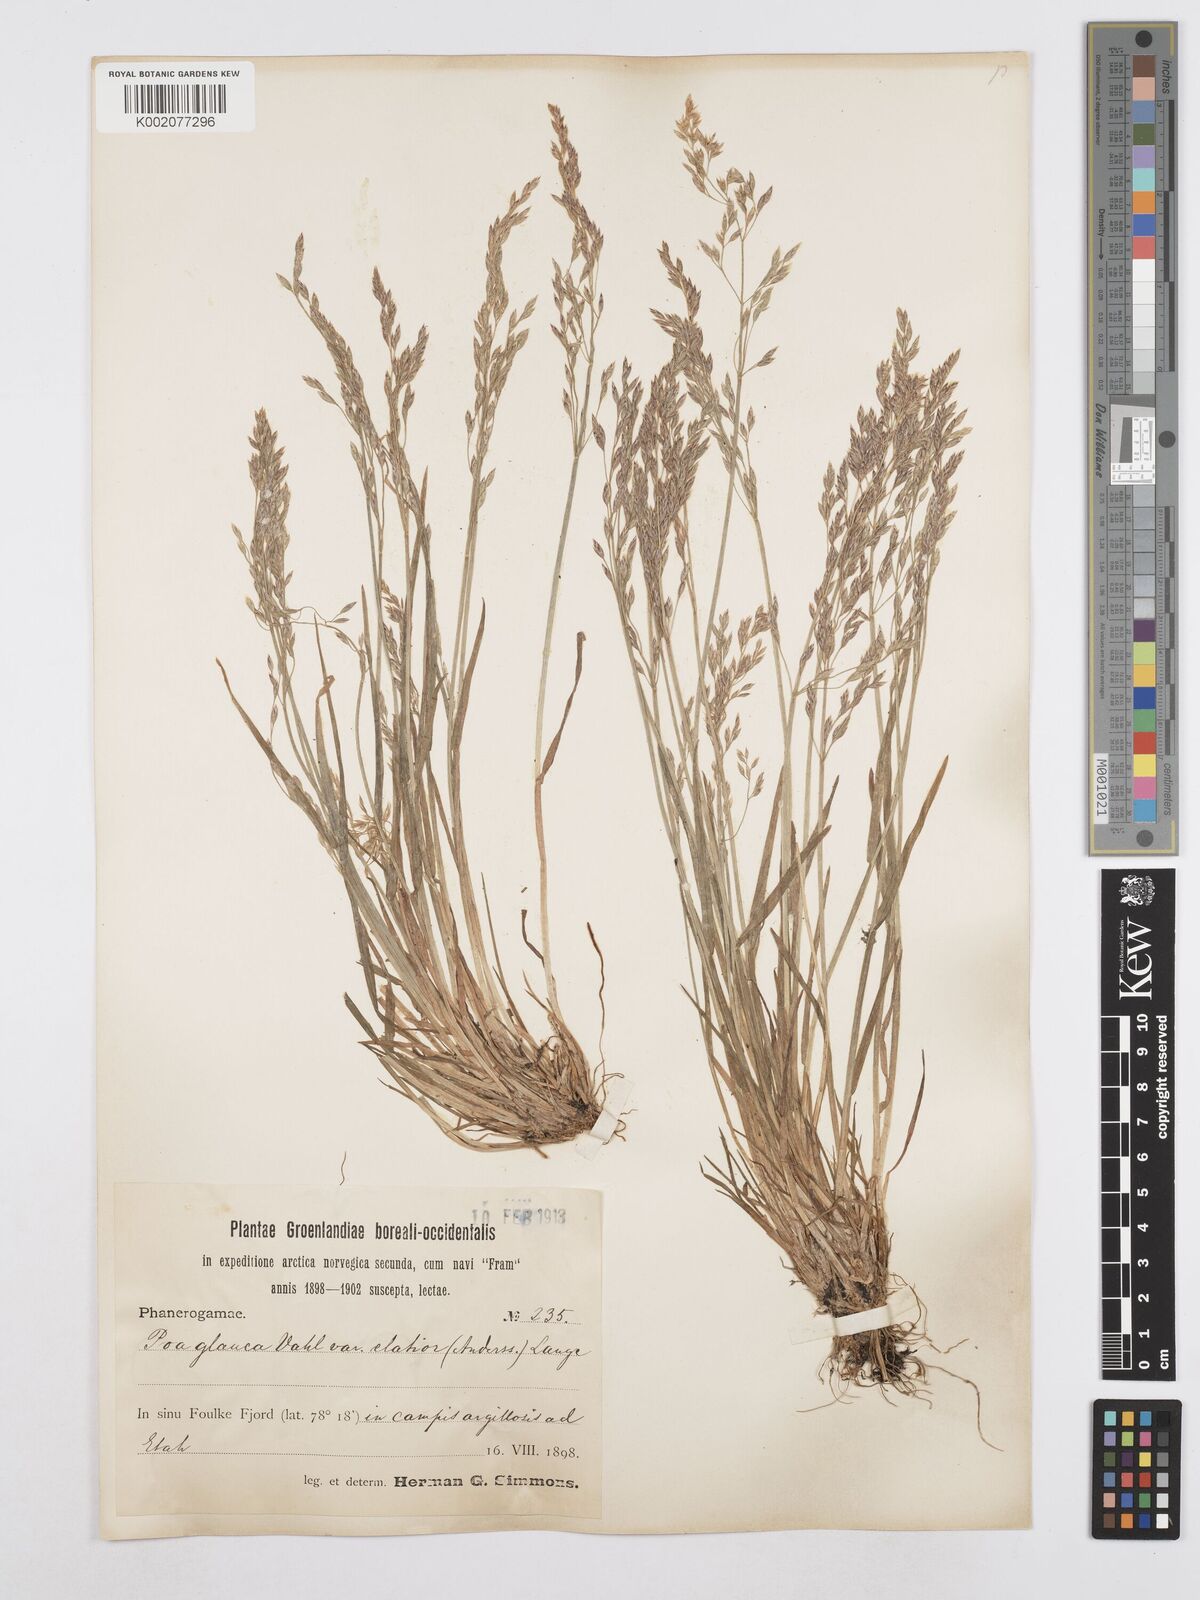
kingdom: Plantae
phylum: Tracheophyta
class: Liliopsida
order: Poales
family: Poaceae
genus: Poa
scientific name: Poa glauca
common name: Glaucous bluegrass
